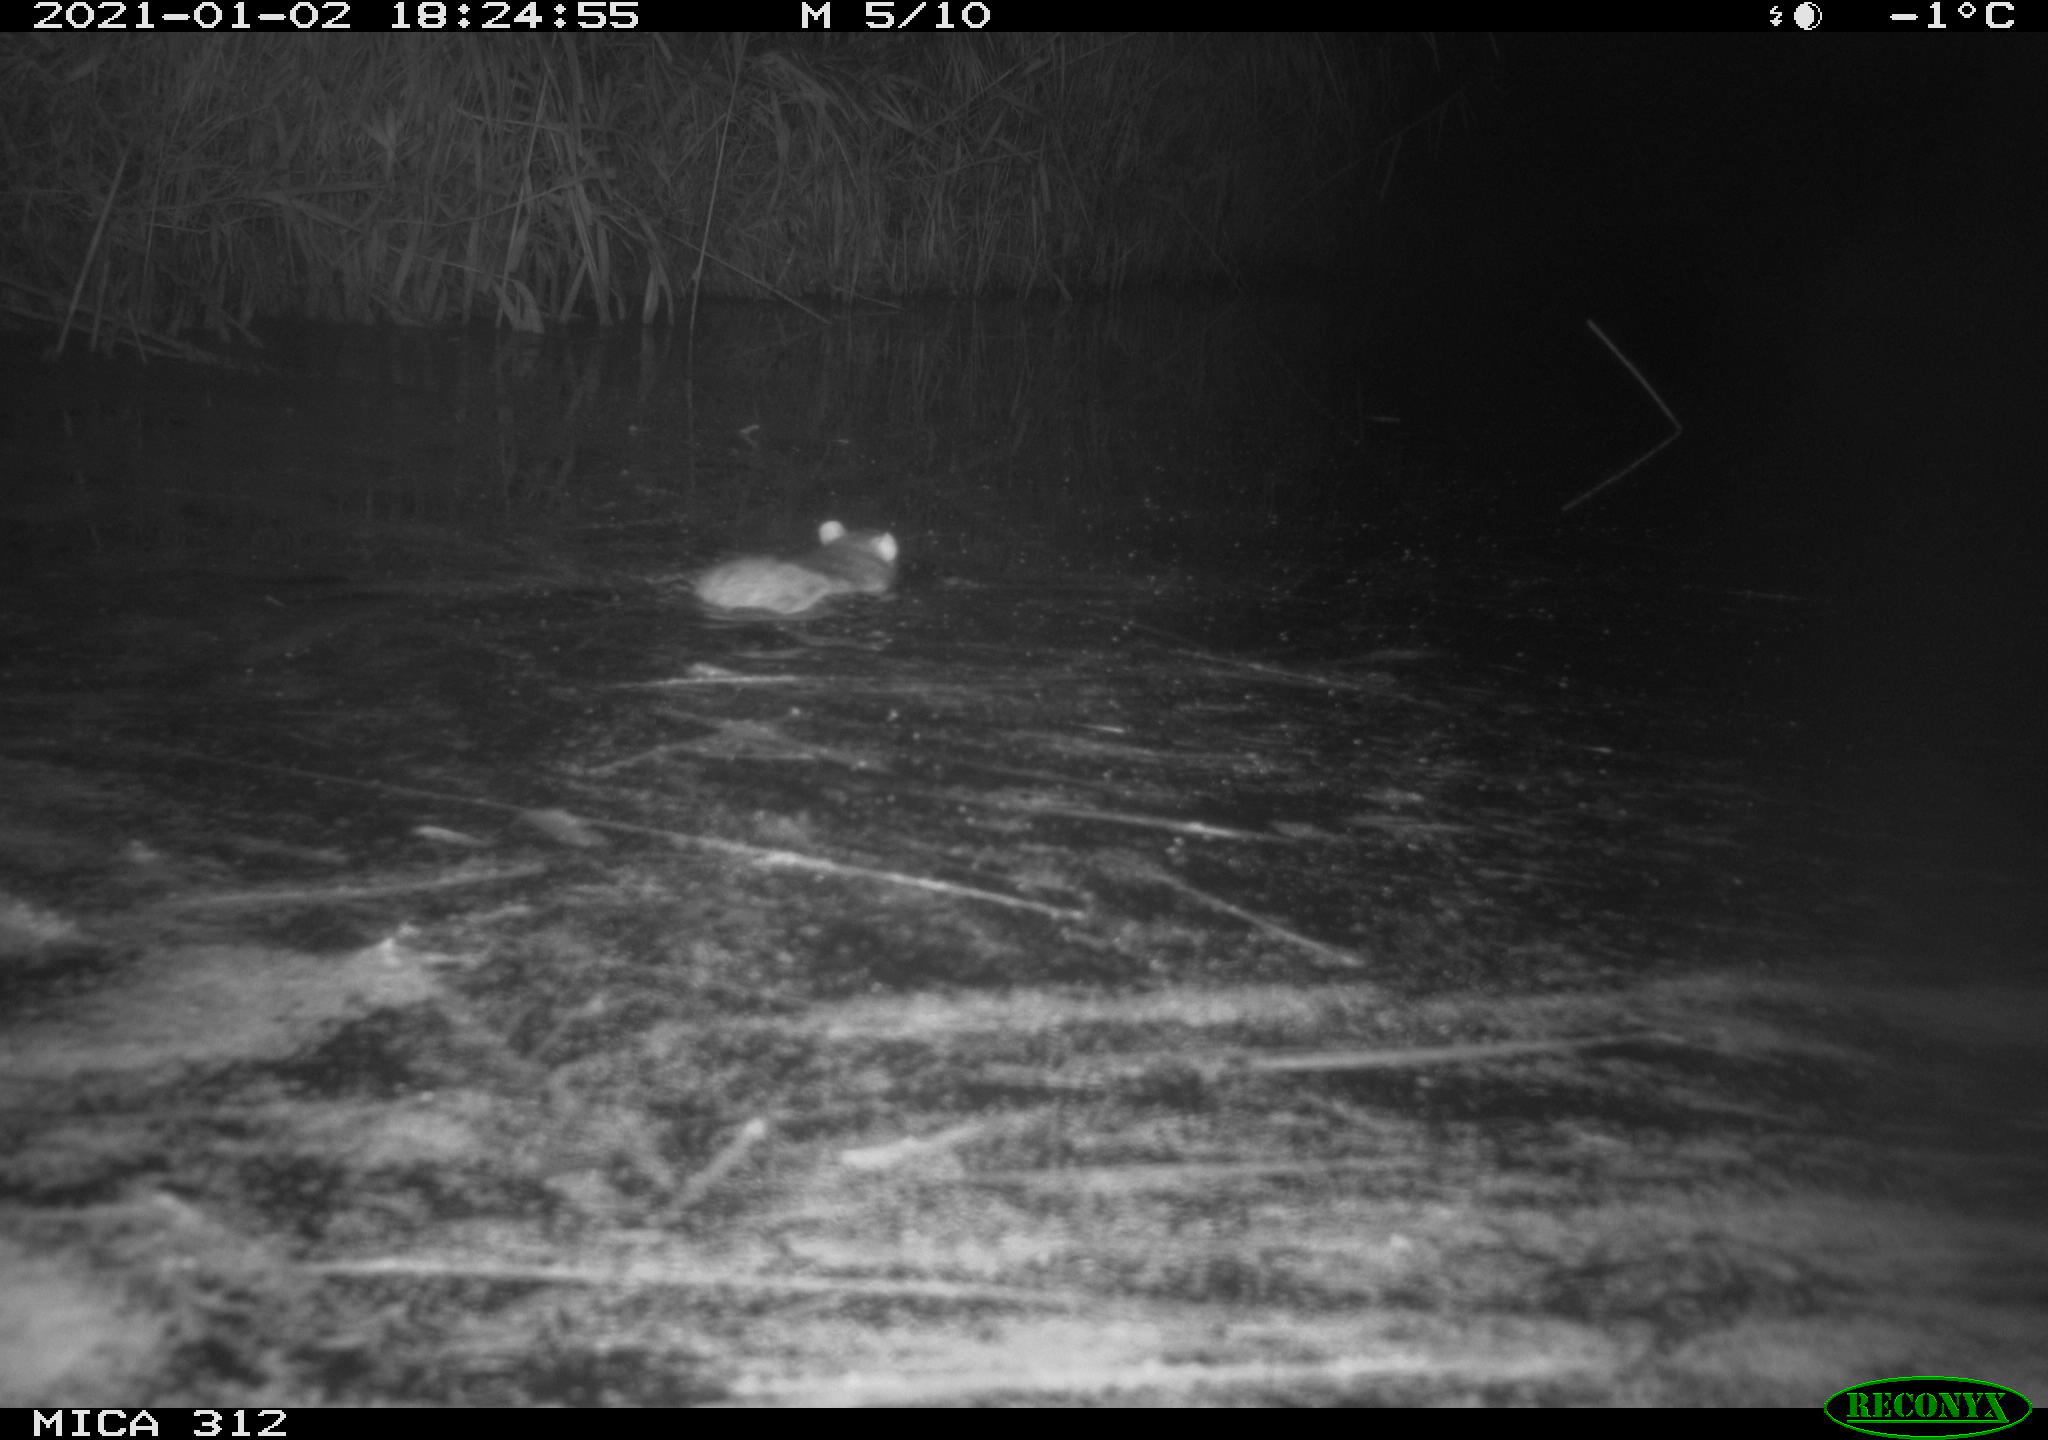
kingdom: Animalia
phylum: Chordata
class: Mammalia
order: Rodentia
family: Muridae
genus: Rattus
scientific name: Rattus norvegicus
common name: Brown rat
